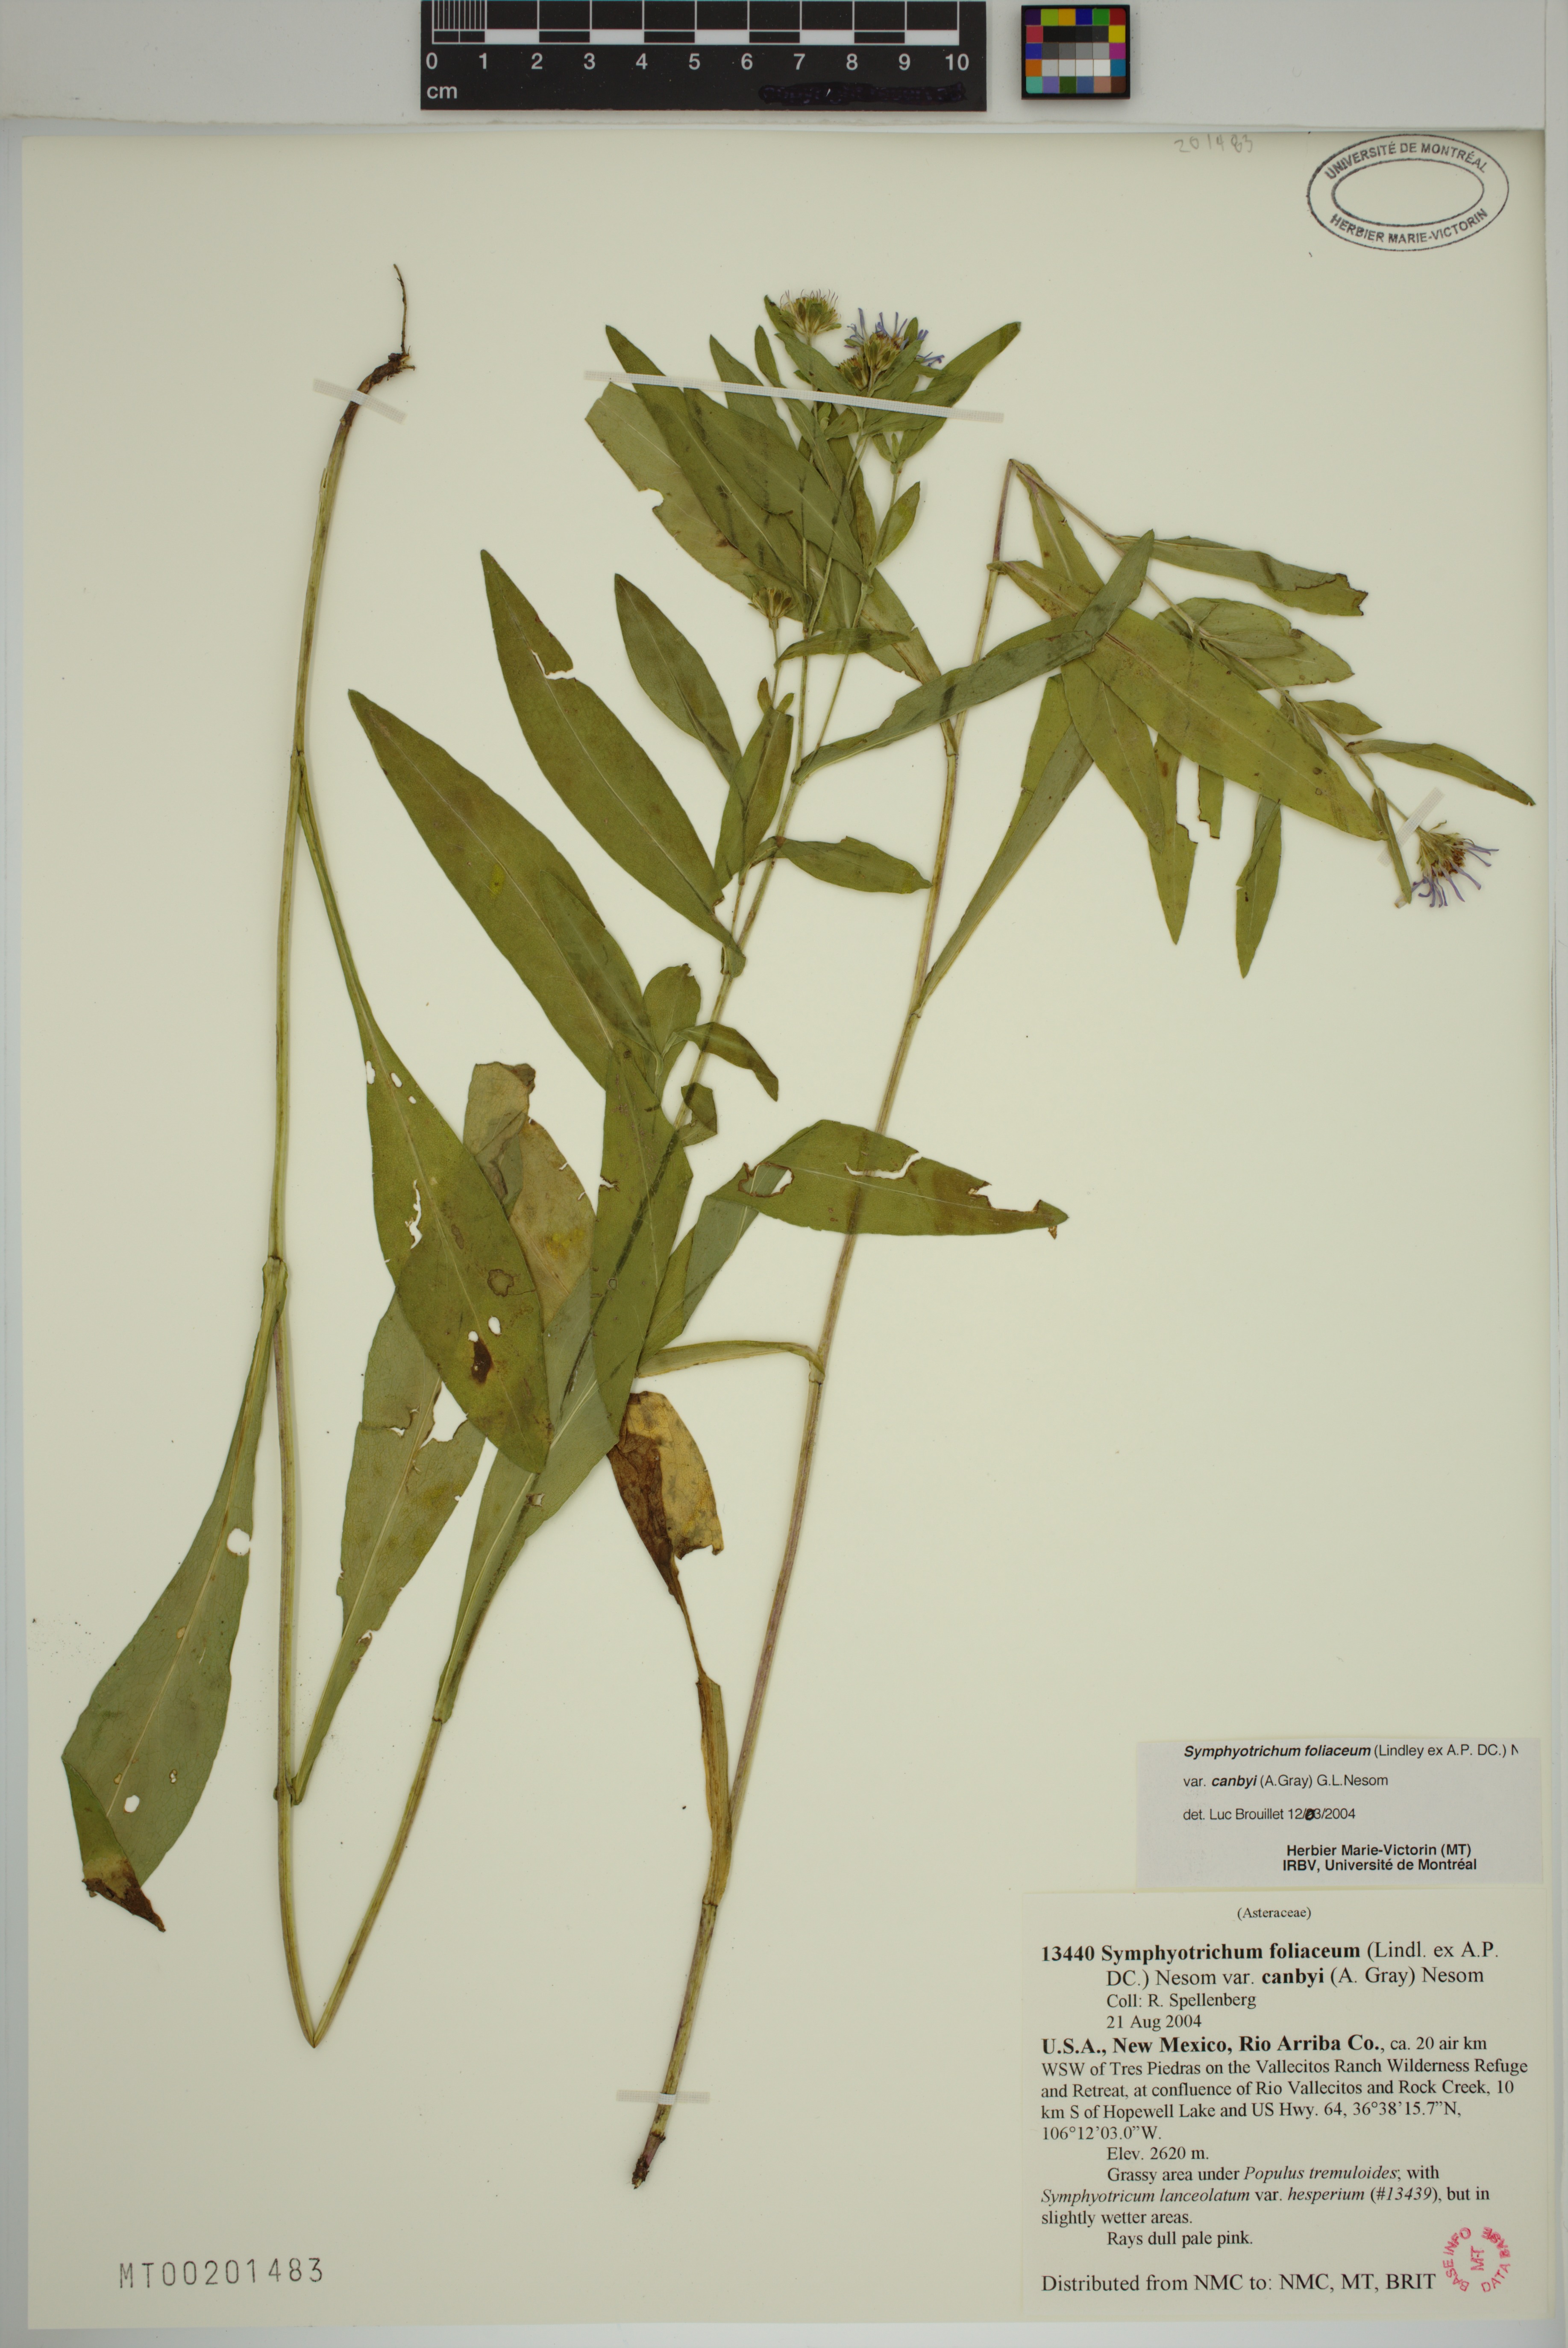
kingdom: Plantae
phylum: Tracheophyta
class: Magnoliopsida
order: Asterales
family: Asteraceae
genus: Symphyotrichum
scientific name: Symphyotrichum foliaceum
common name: Leafy aster
